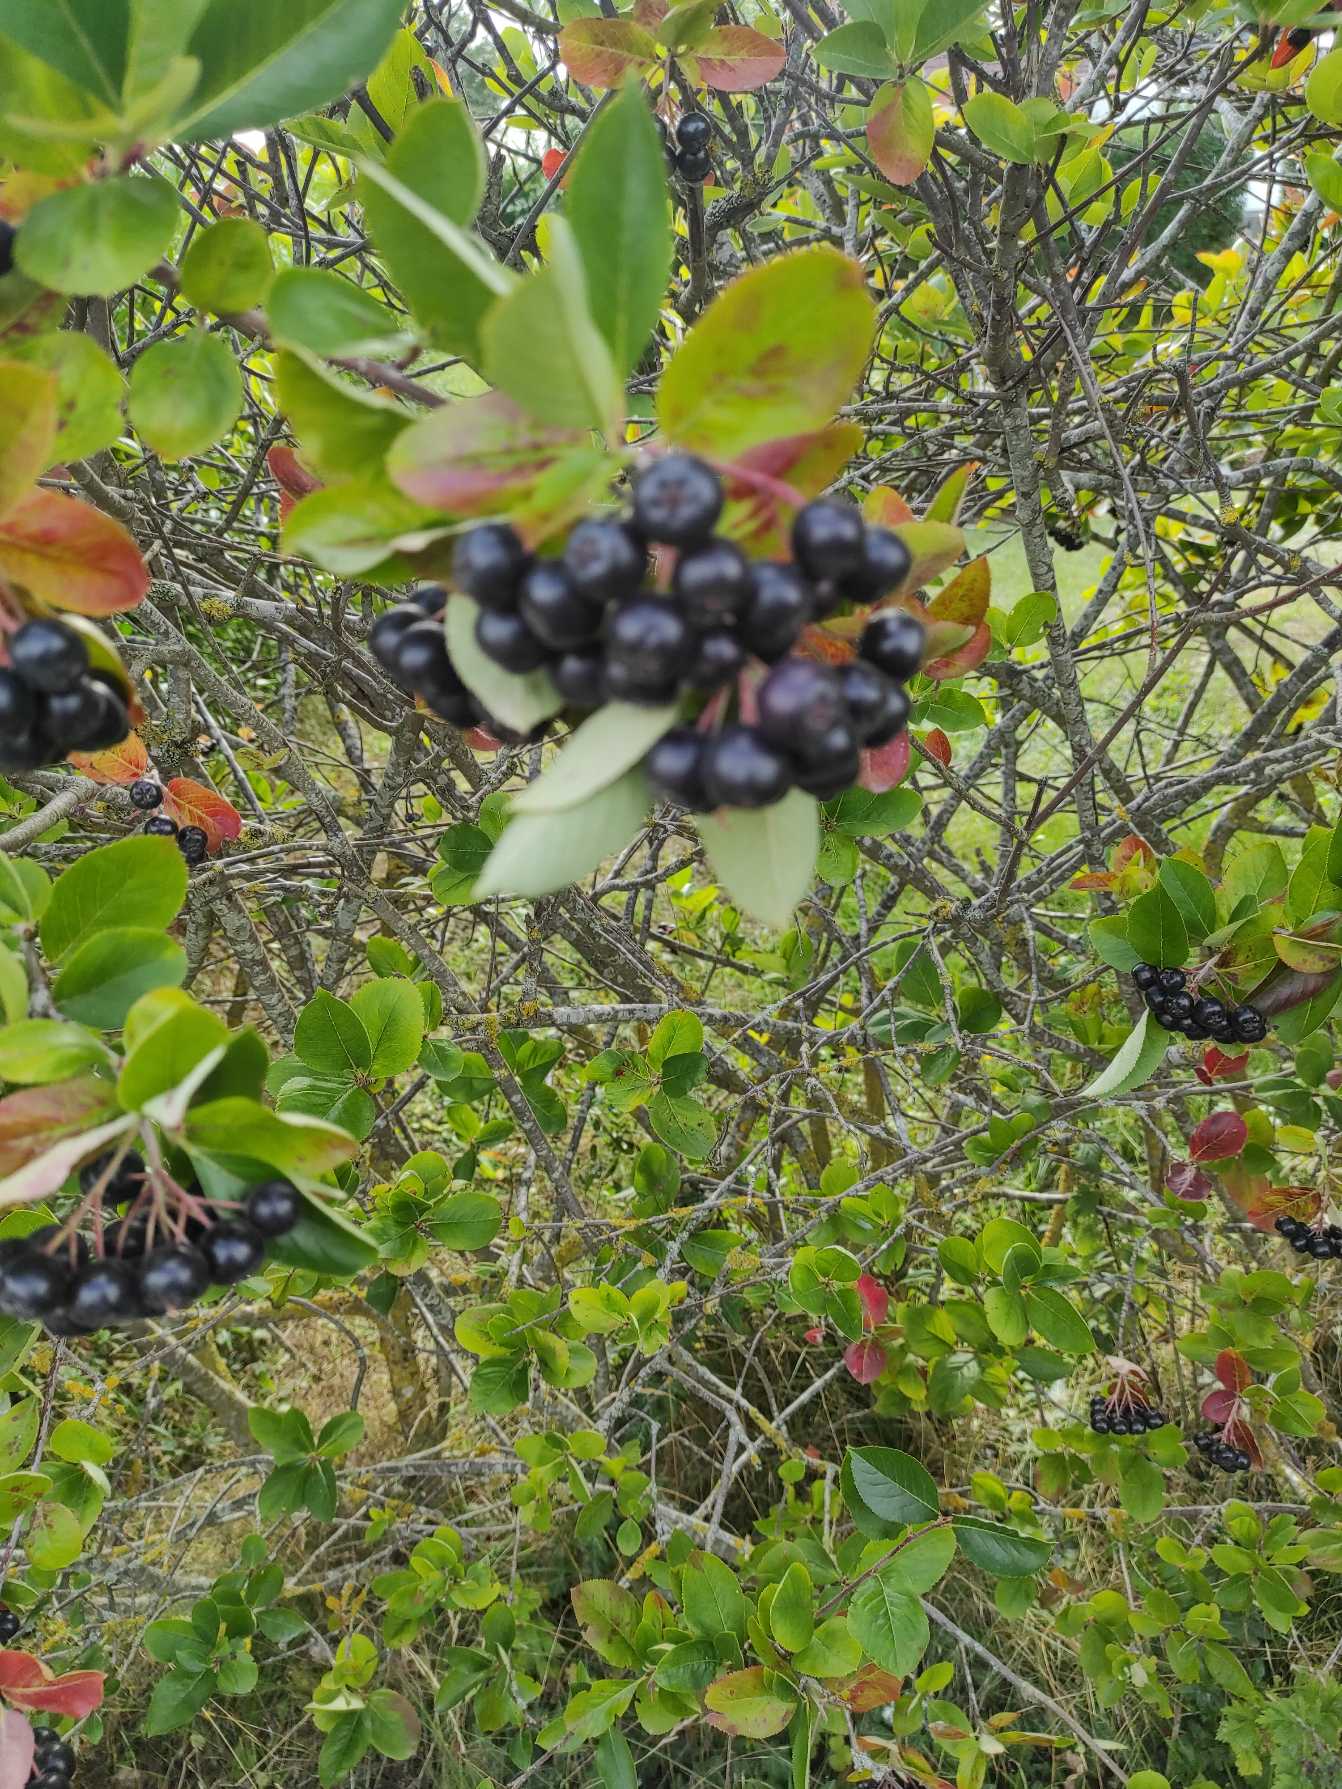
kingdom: Plantae
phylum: Tracheophyta
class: Magnoliopsida
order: Rosales
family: Rosaceae
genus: Aronia
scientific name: Aronia melanocarpa
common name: Sortfrugtet surbær
